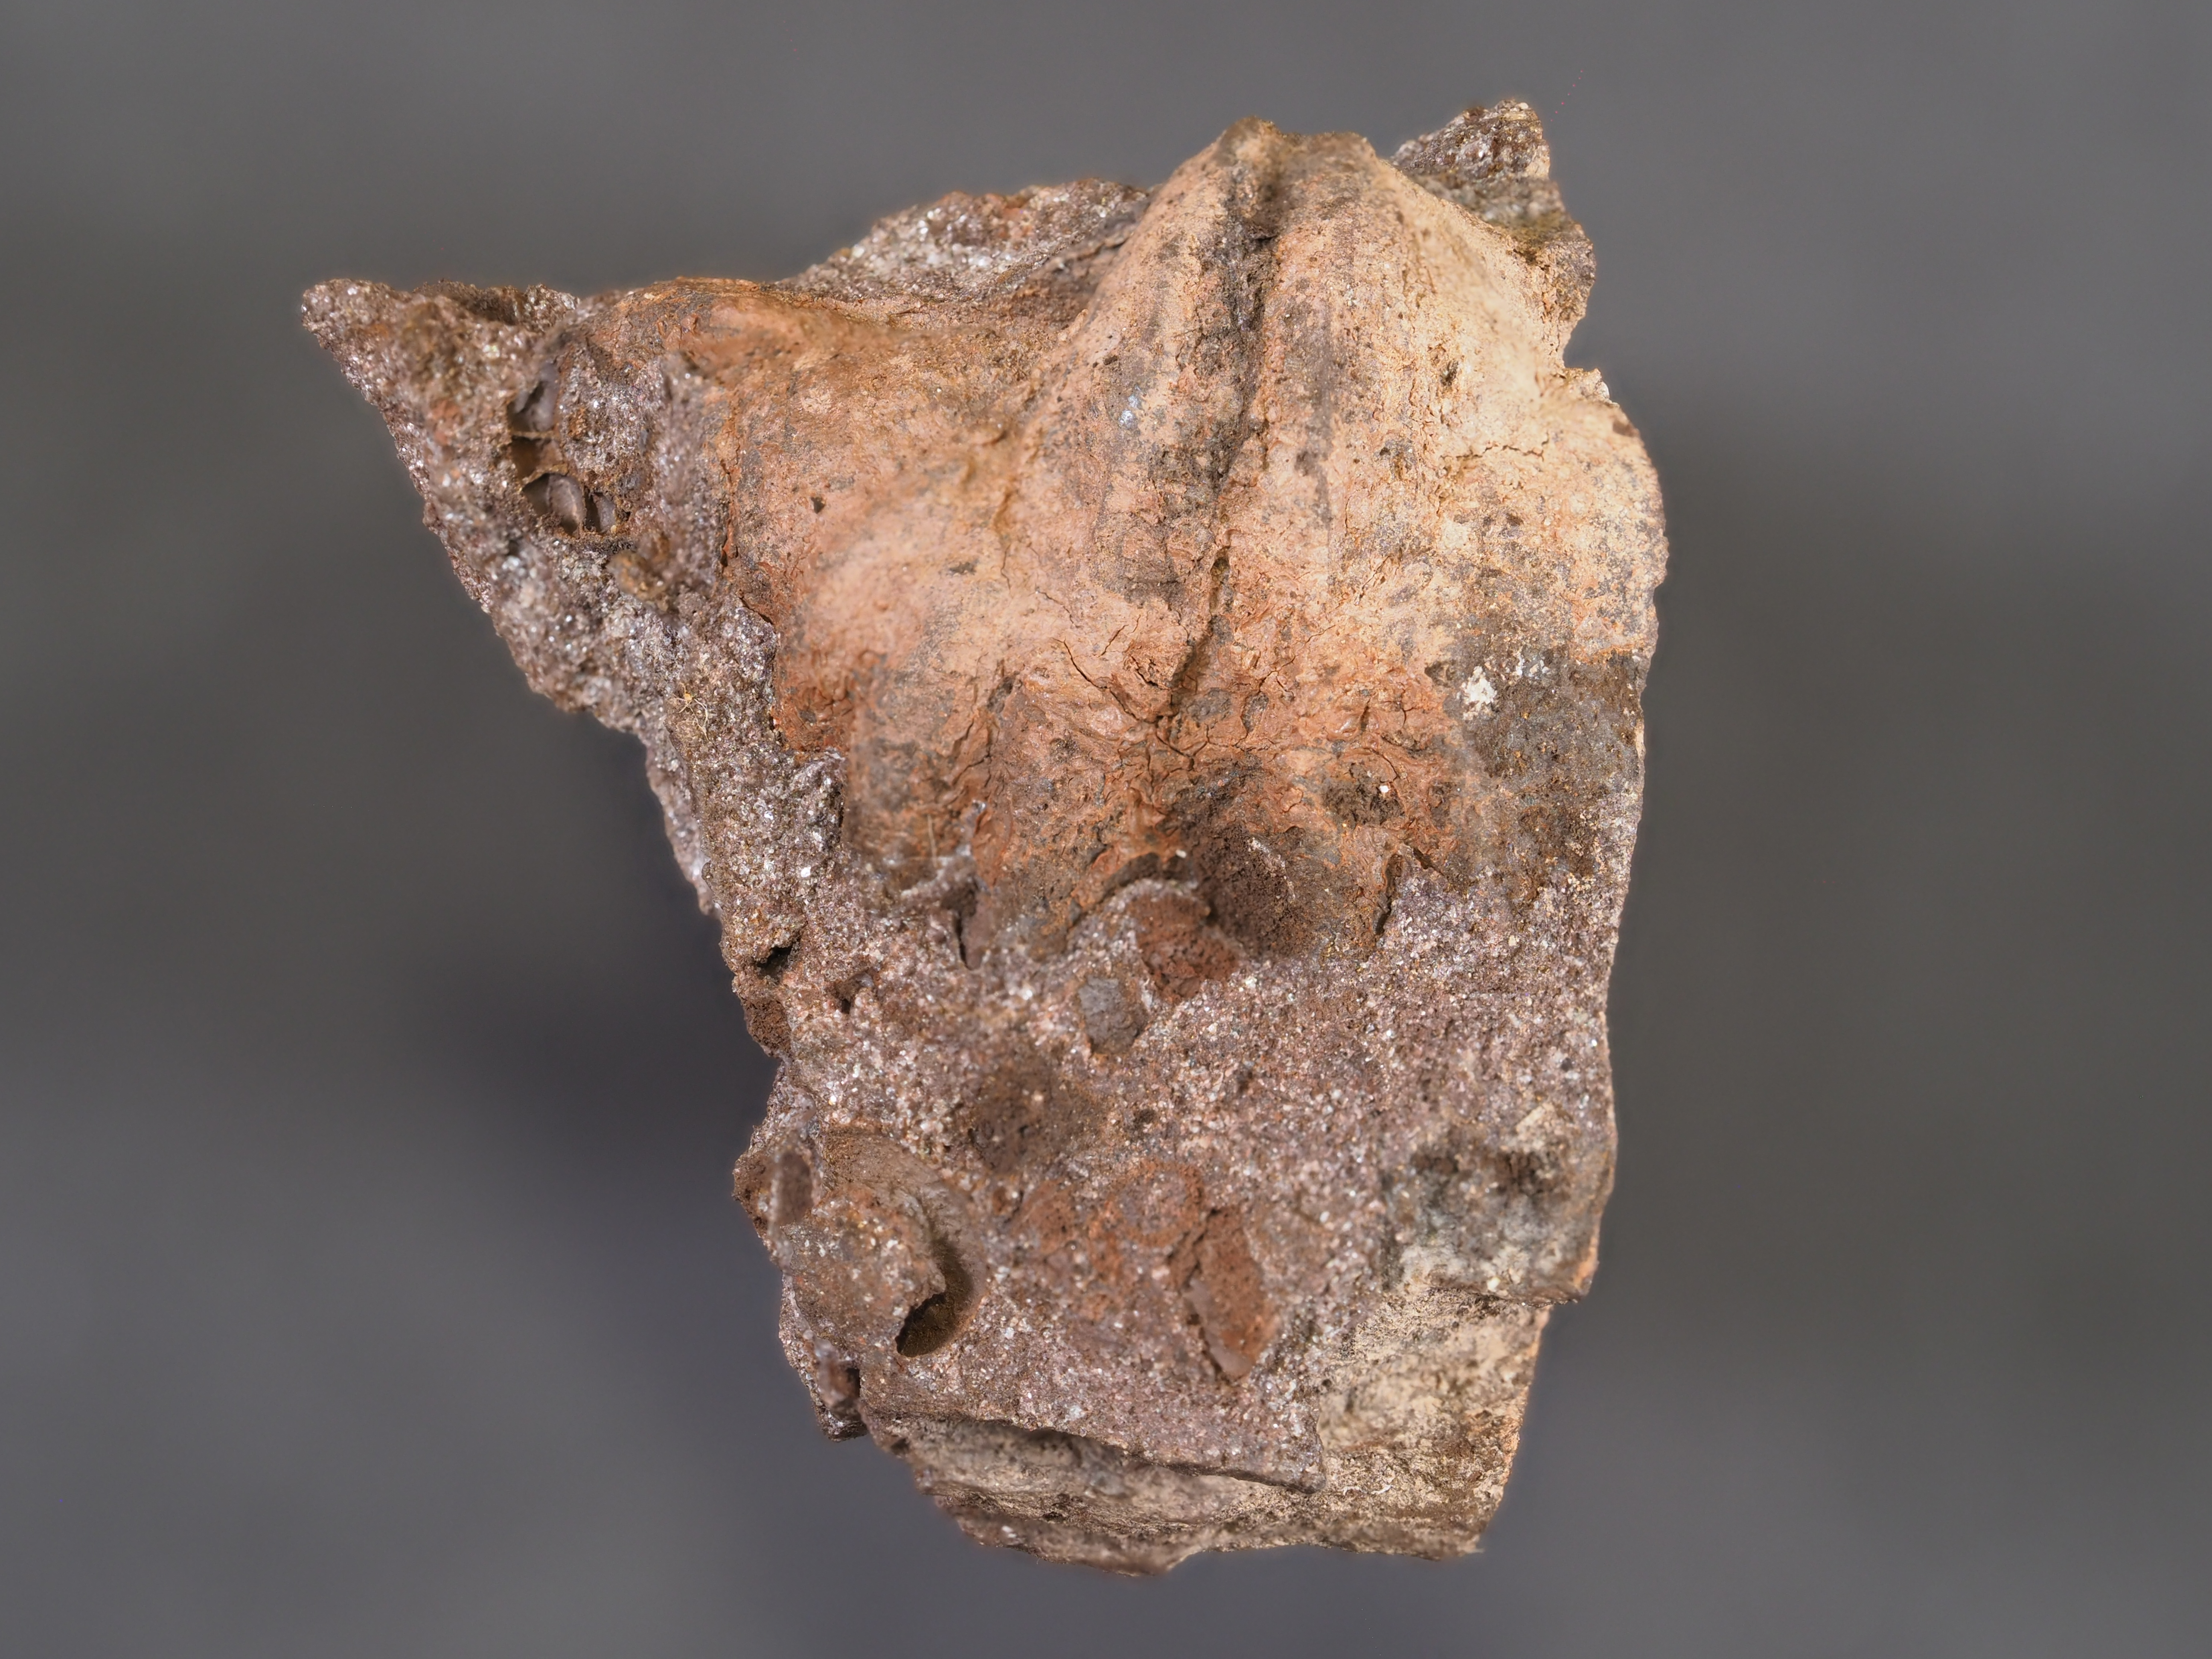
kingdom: Animalia
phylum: Brachiopoda
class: Rhynchonellata
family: Hysterolitidae
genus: Arduspirifer
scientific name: Arduspirifer Spirifer arduennensis
